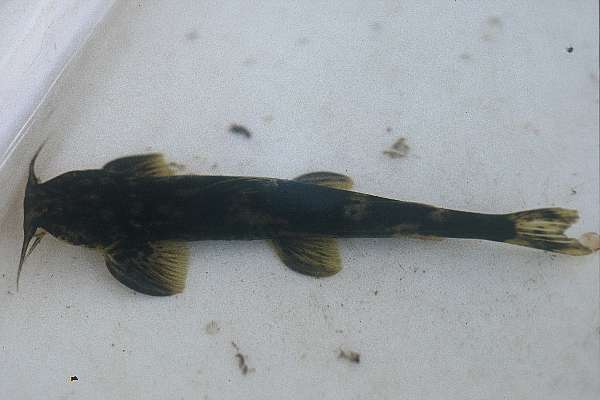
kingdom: Animalia
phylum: Chordata
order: Siluriformes
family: Amphiliidae
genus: Amphilius
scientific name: Amphilius uranoscopus
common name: Stargazer mountain catfish
